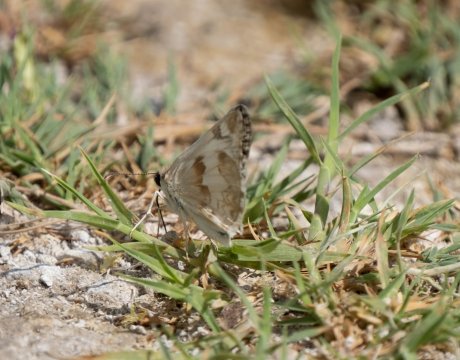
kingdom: Animalia
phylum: Arthropoda
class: Insecta
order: Lepidoptera
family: Hesperiidae
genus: Heliopetes
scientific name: Heliopetes ericetorum
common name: Northern White-Skipper
